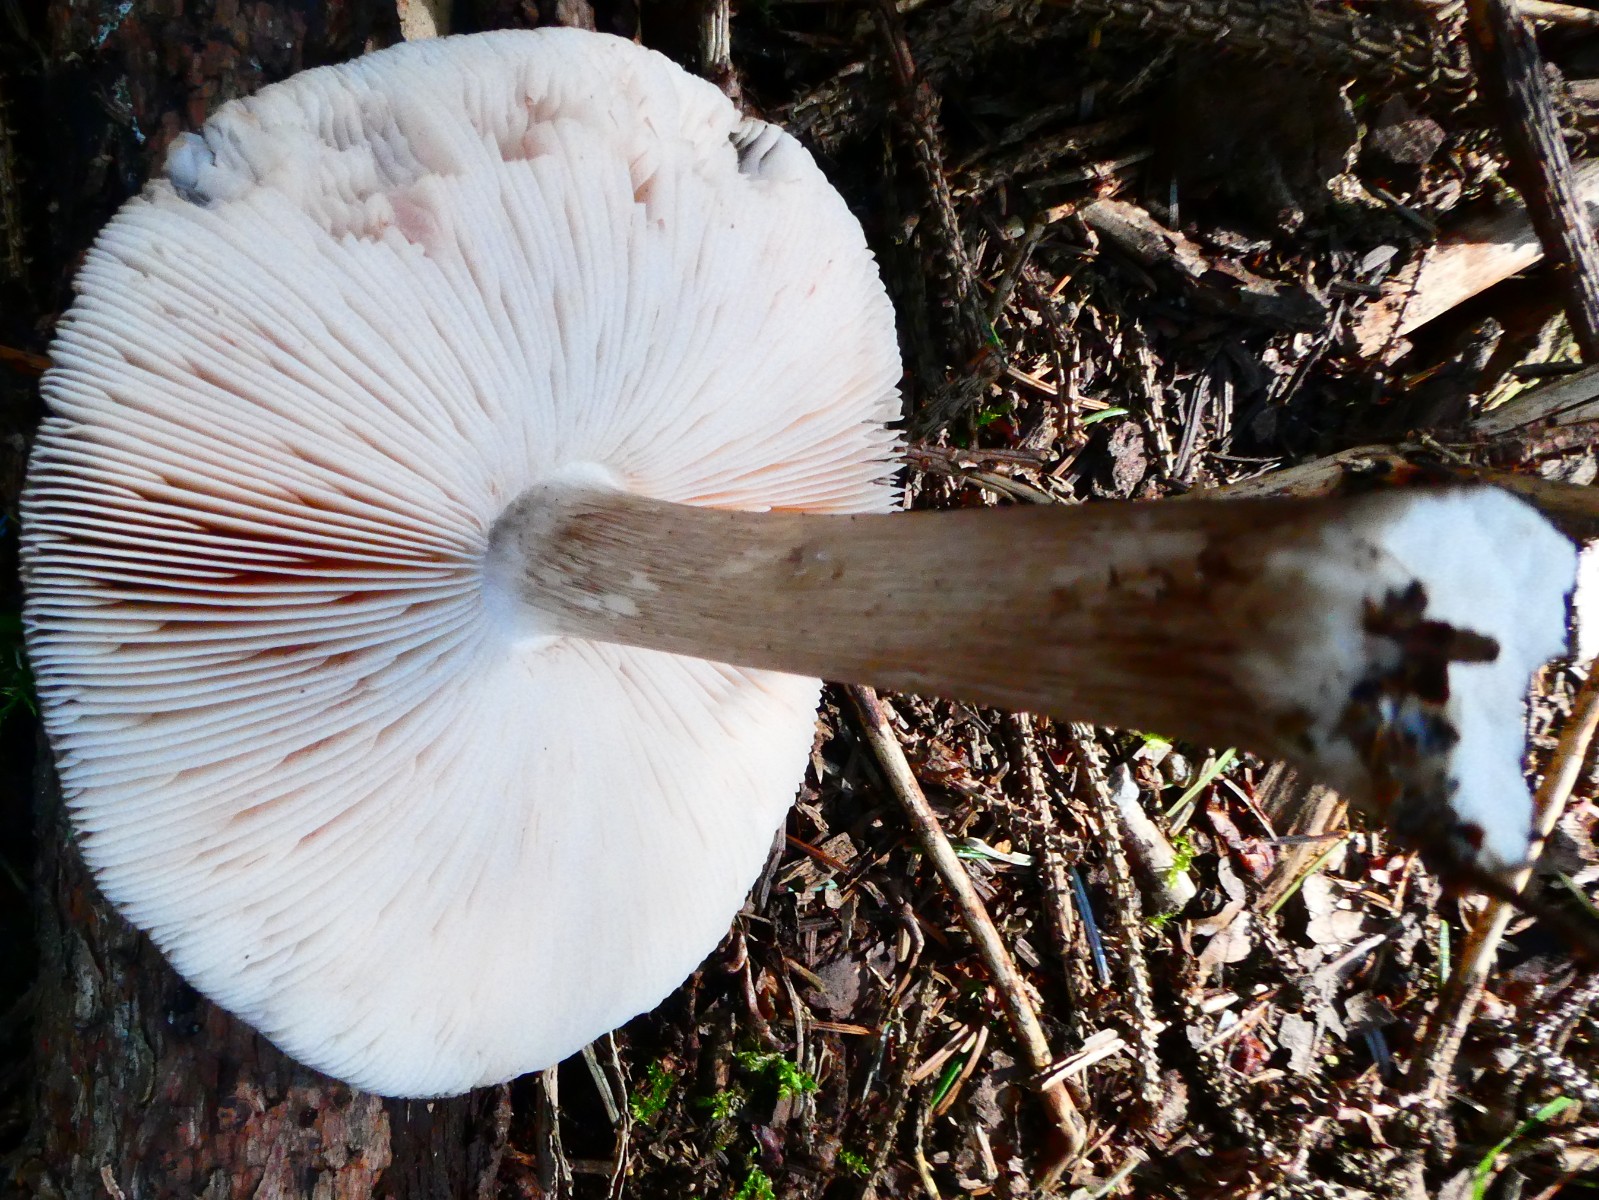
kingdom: Fungi
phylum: Basidiomycota
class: Agaricomycetes
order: Agaricales
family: Pluteaceae
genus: Pluteus
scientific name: Pluteus
